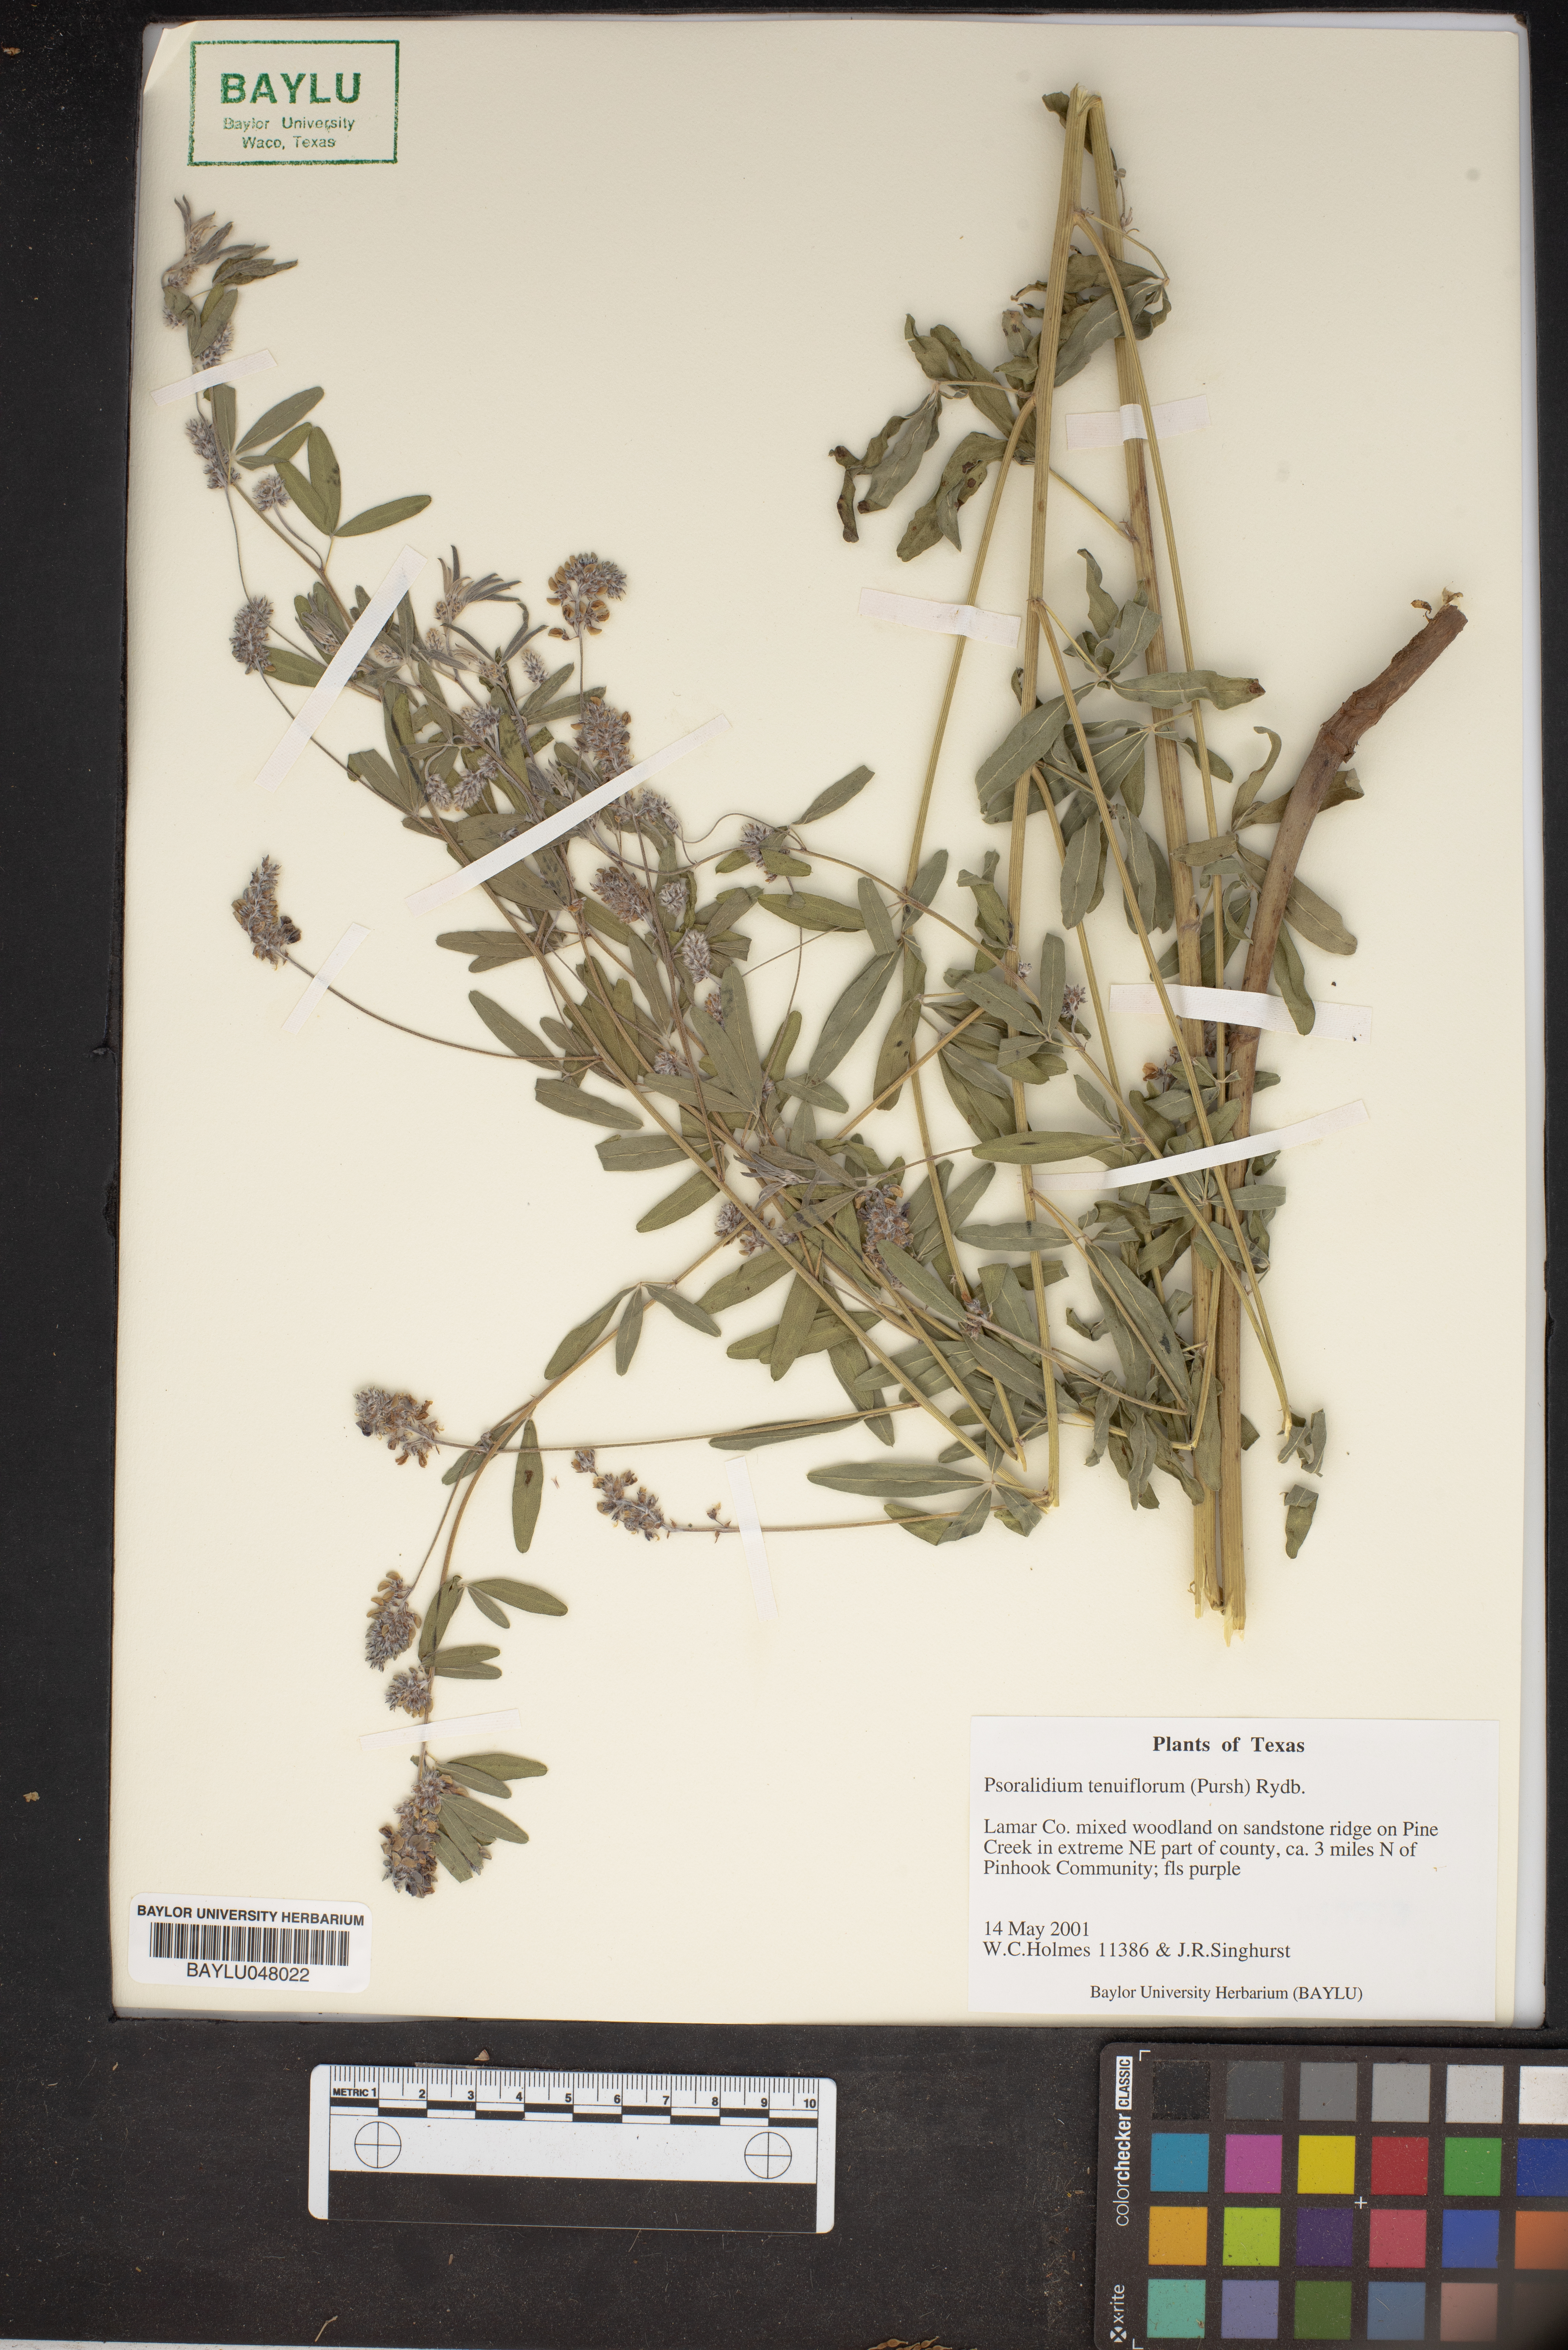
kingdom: Plantae
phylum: Tracheophyta
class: Magnoliopsida
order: Fabales
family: Fabaceae
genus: Pediomelum
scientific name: Pediomelum tenuiflorum
